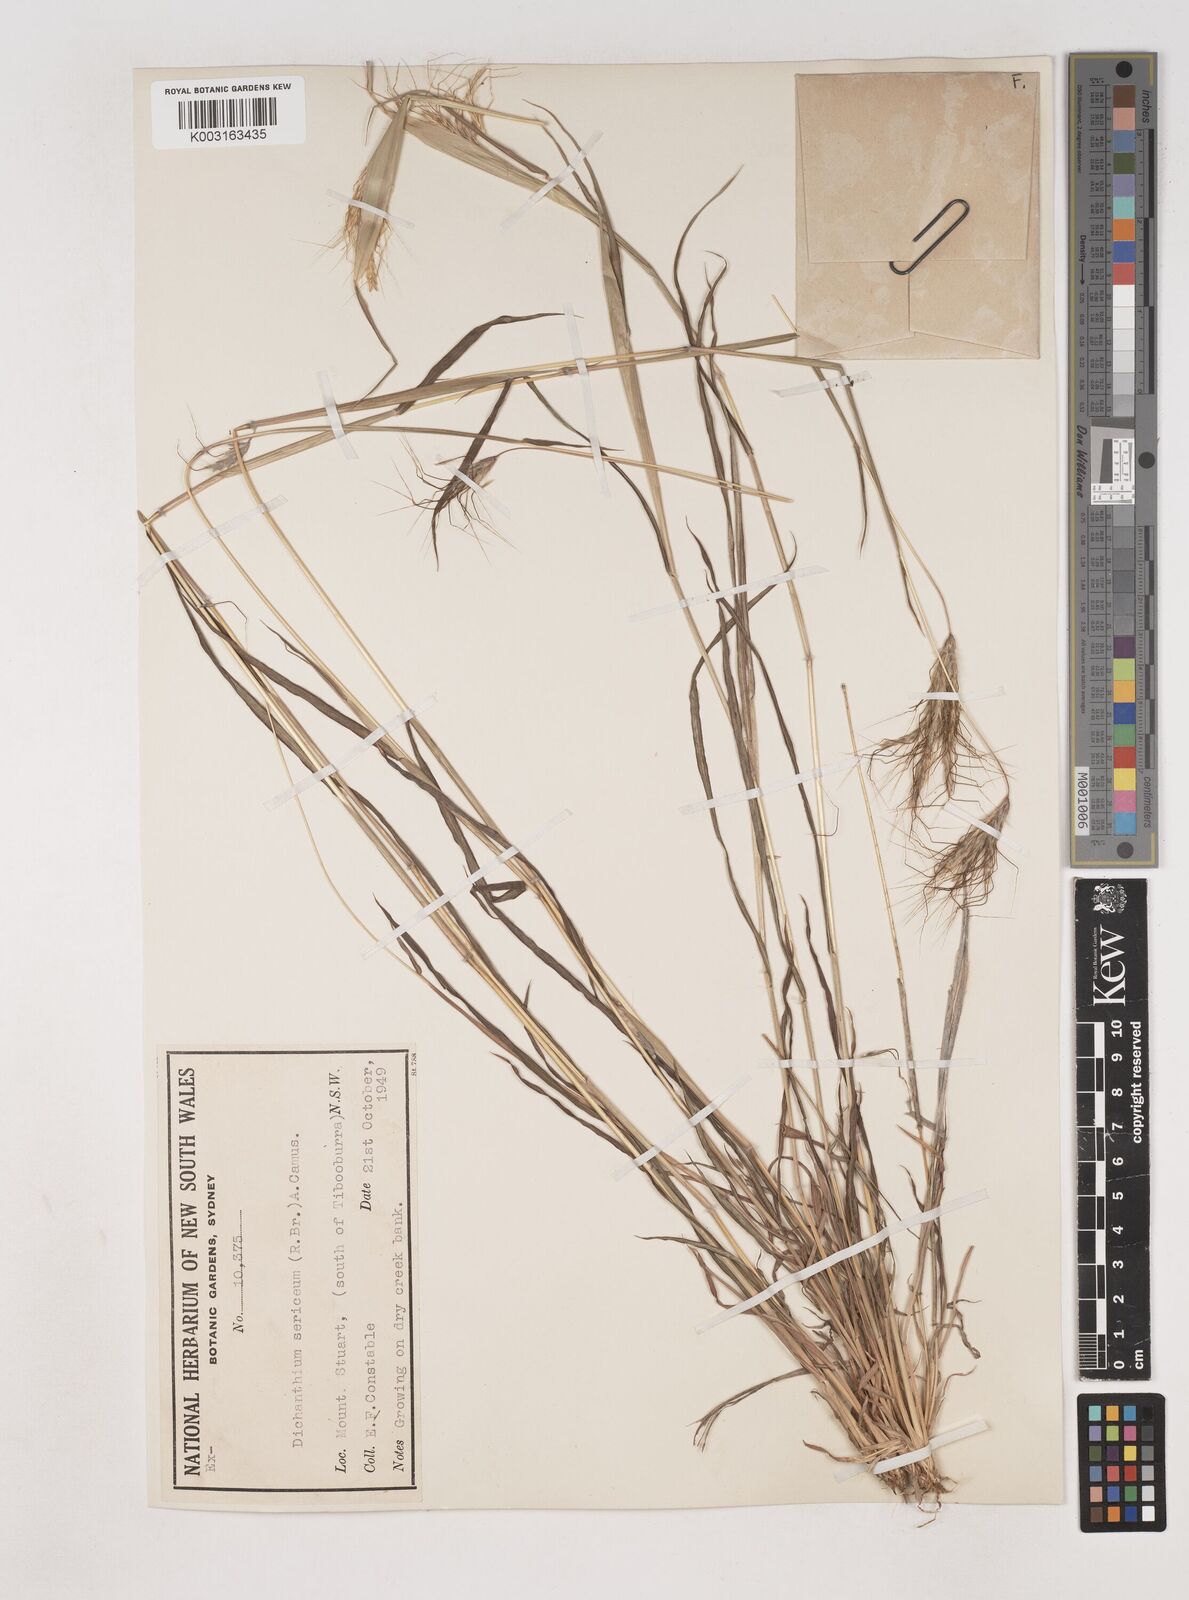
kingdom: Plantae
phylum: Tracheophyta
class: Liliopsida
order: Poales
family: Poaceae
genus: Dichanthium
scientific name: Dichanthium sericeum
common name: Silky bluestem
